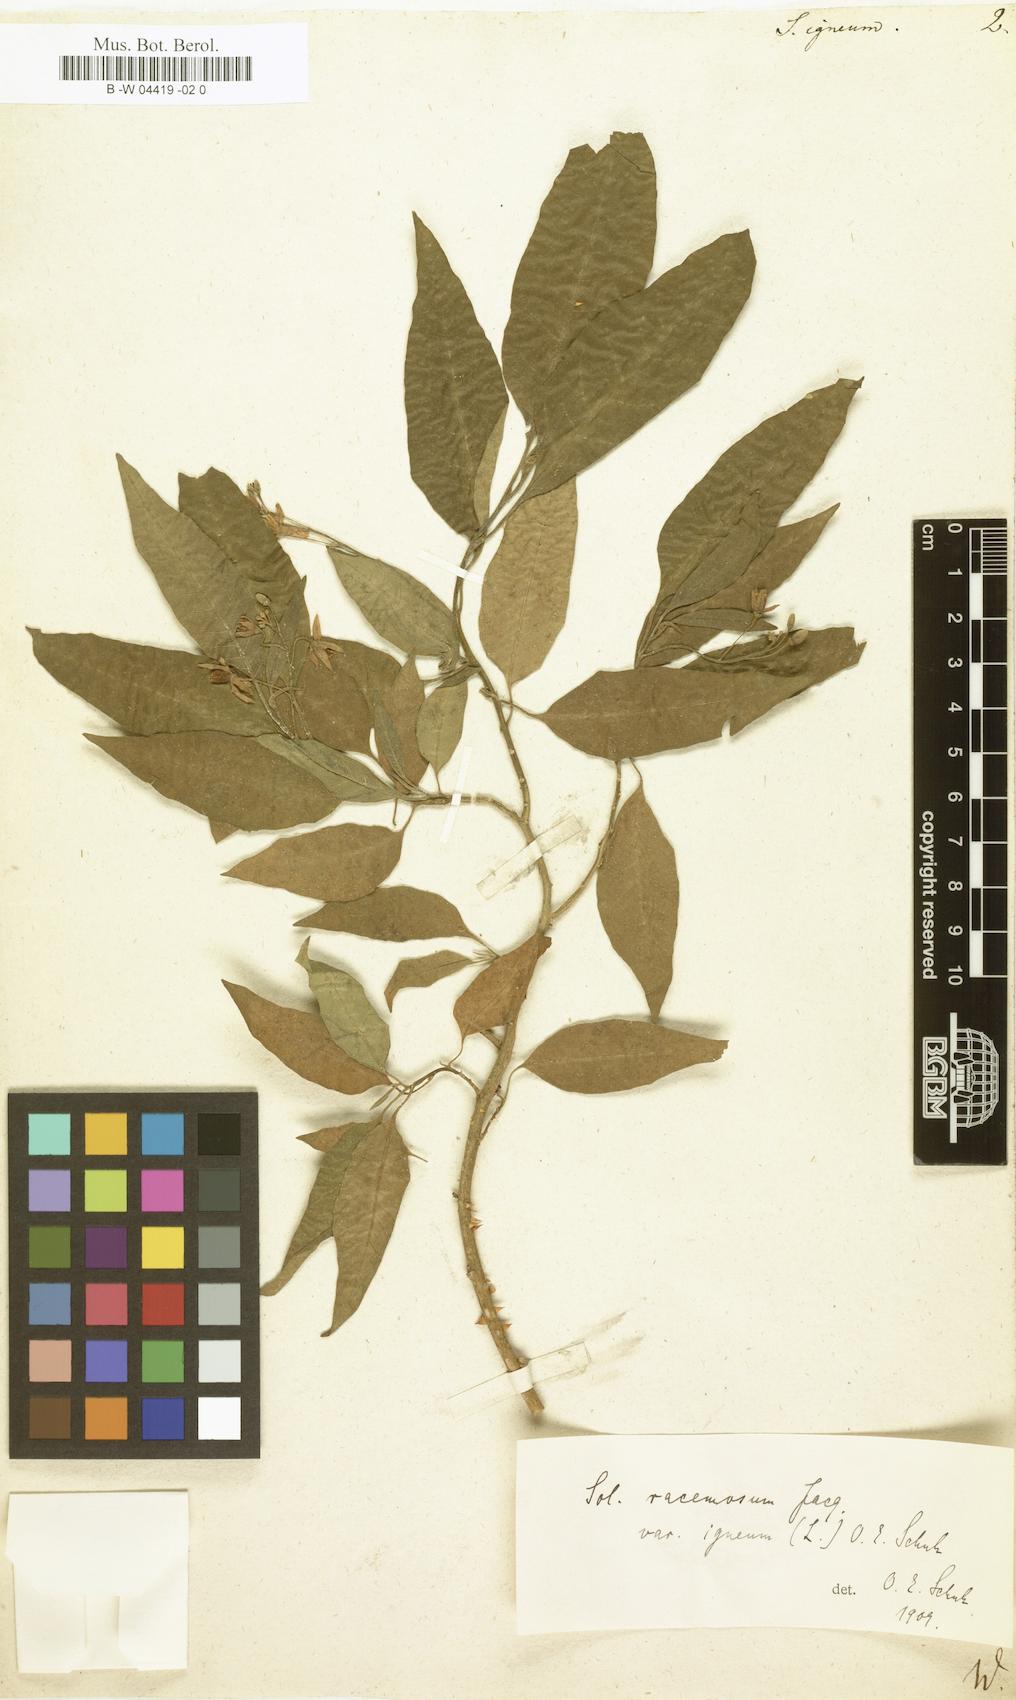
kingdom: Plantae
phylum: Tracheophyta
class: Magnoliopsida
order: Solanales
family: Solanaceae
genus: Solanum
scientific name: Solanum igneum
